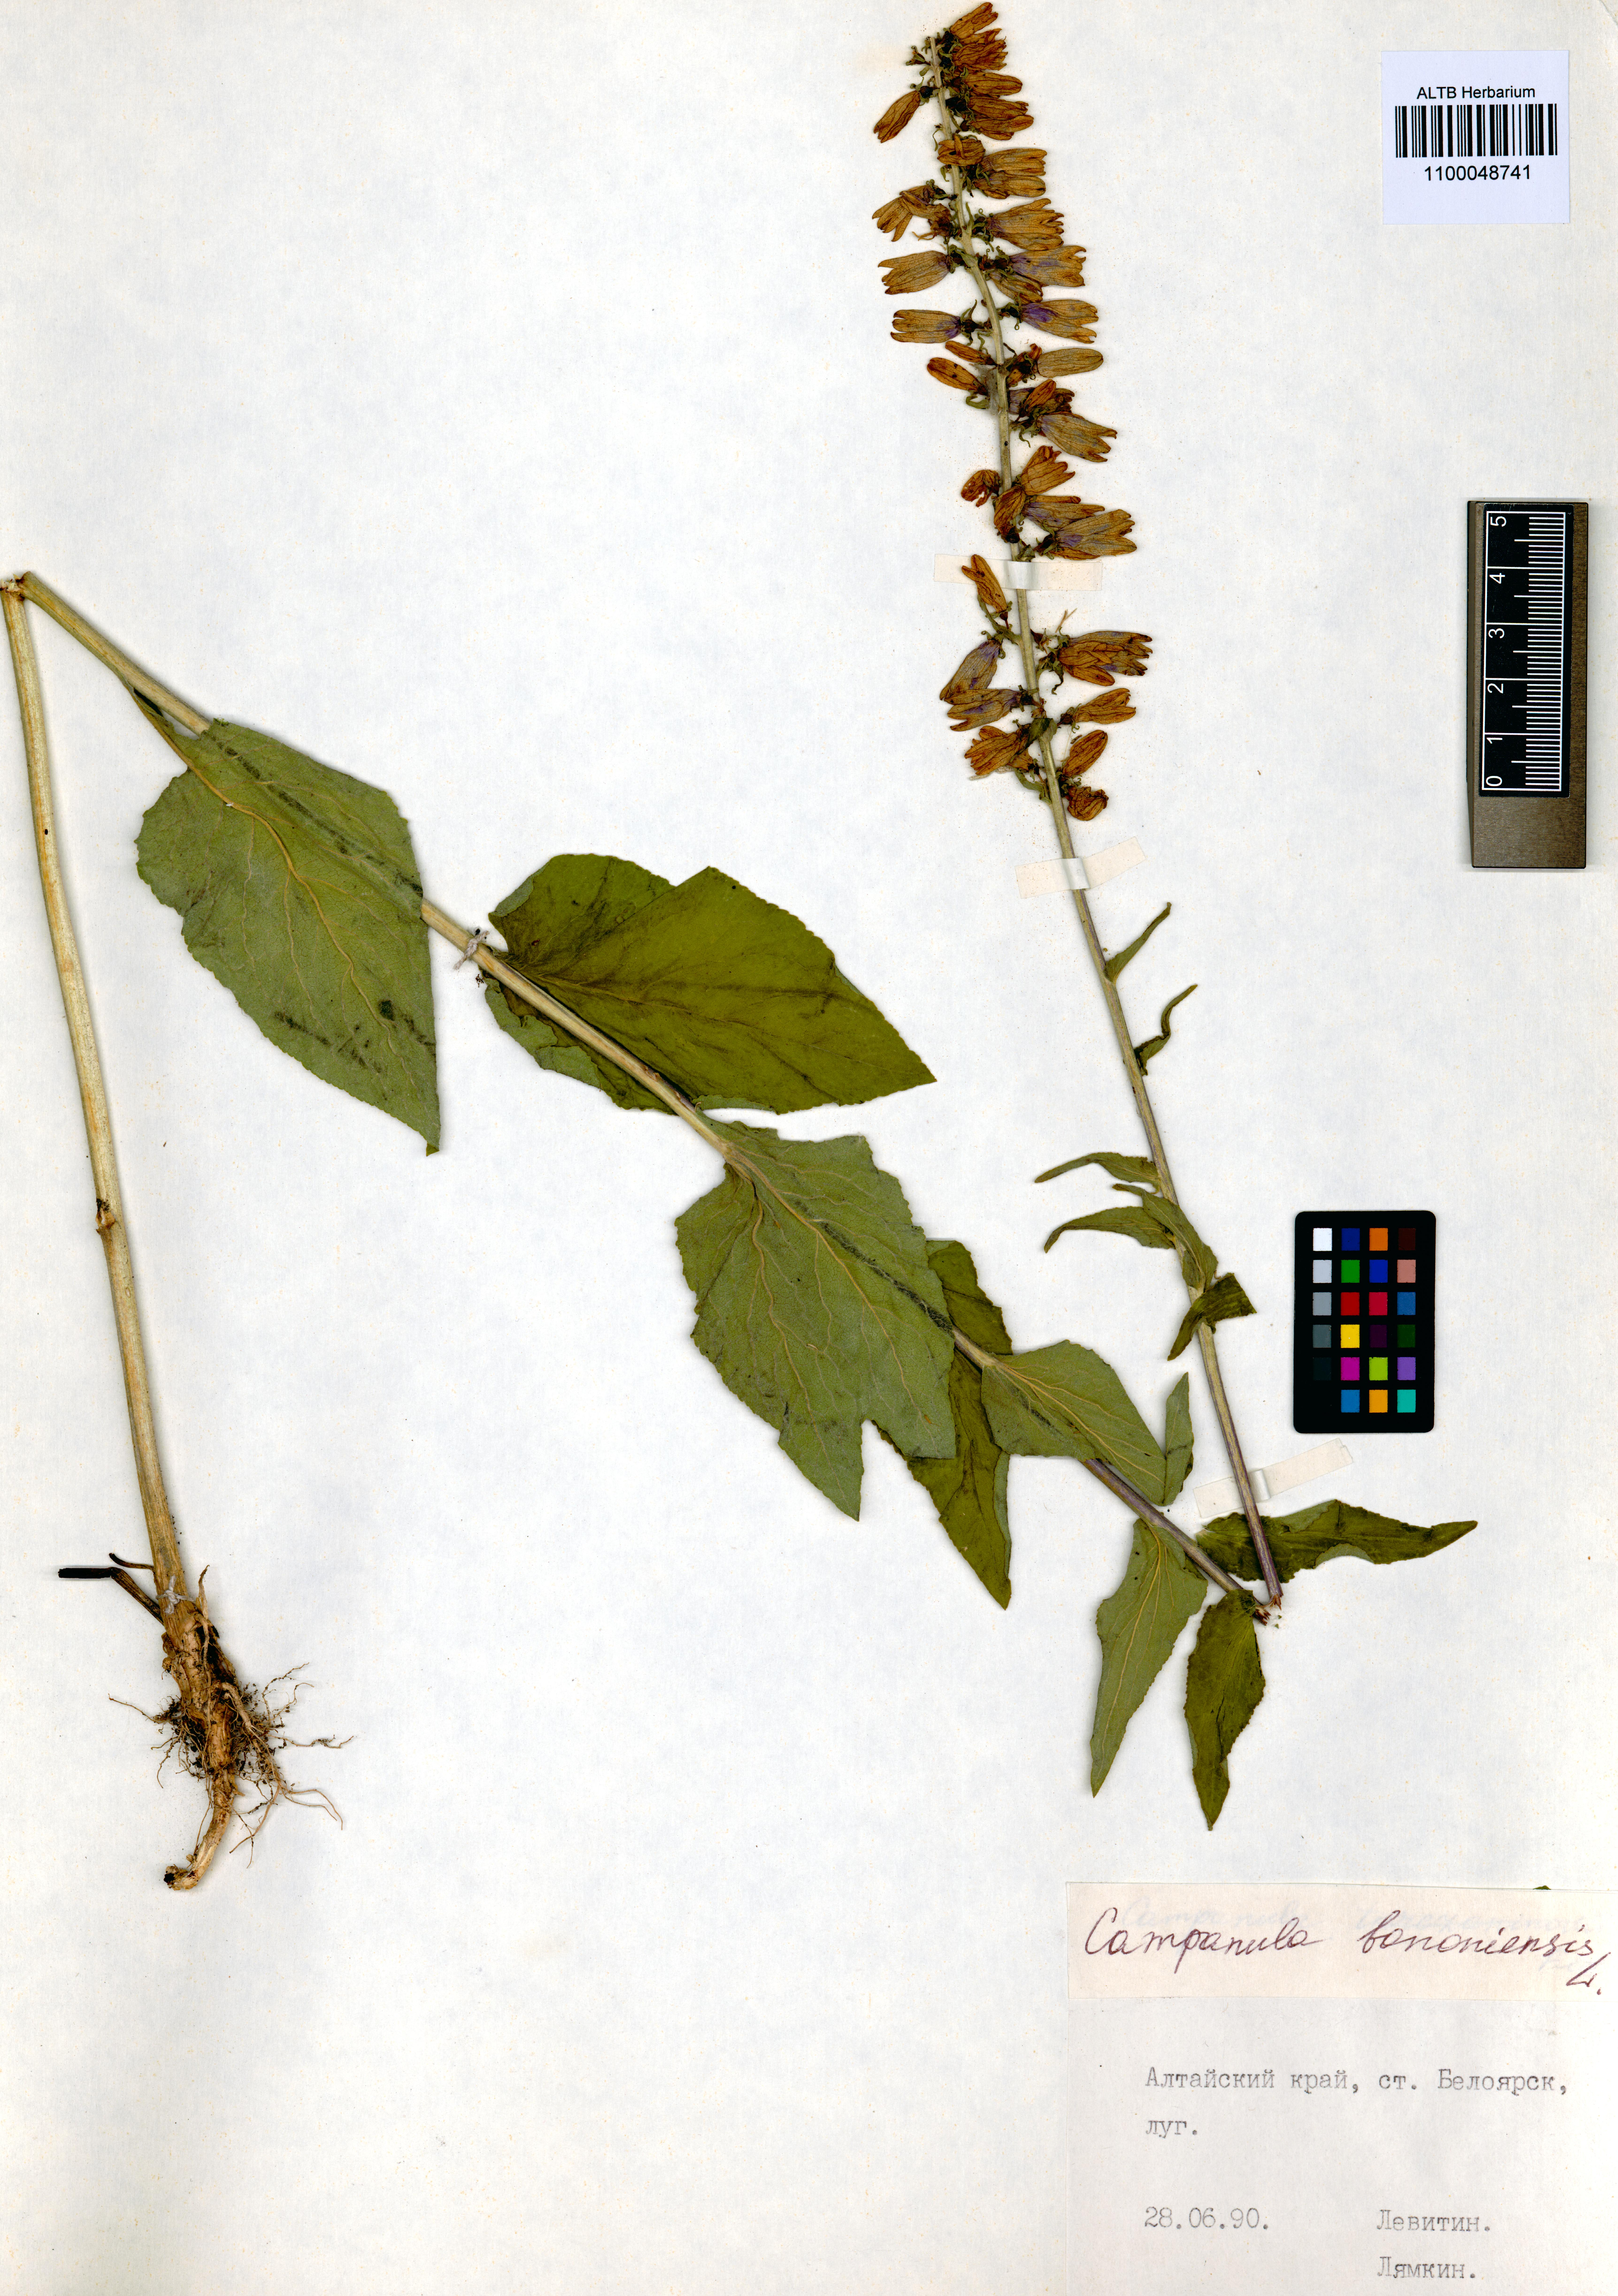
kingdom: Plantae
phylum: Tracheophyta
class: Magnoliopsida
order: Asterales
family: Campanulaceae
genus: Campanula
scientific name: Campanula bononiensis
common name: Pale bellflower
